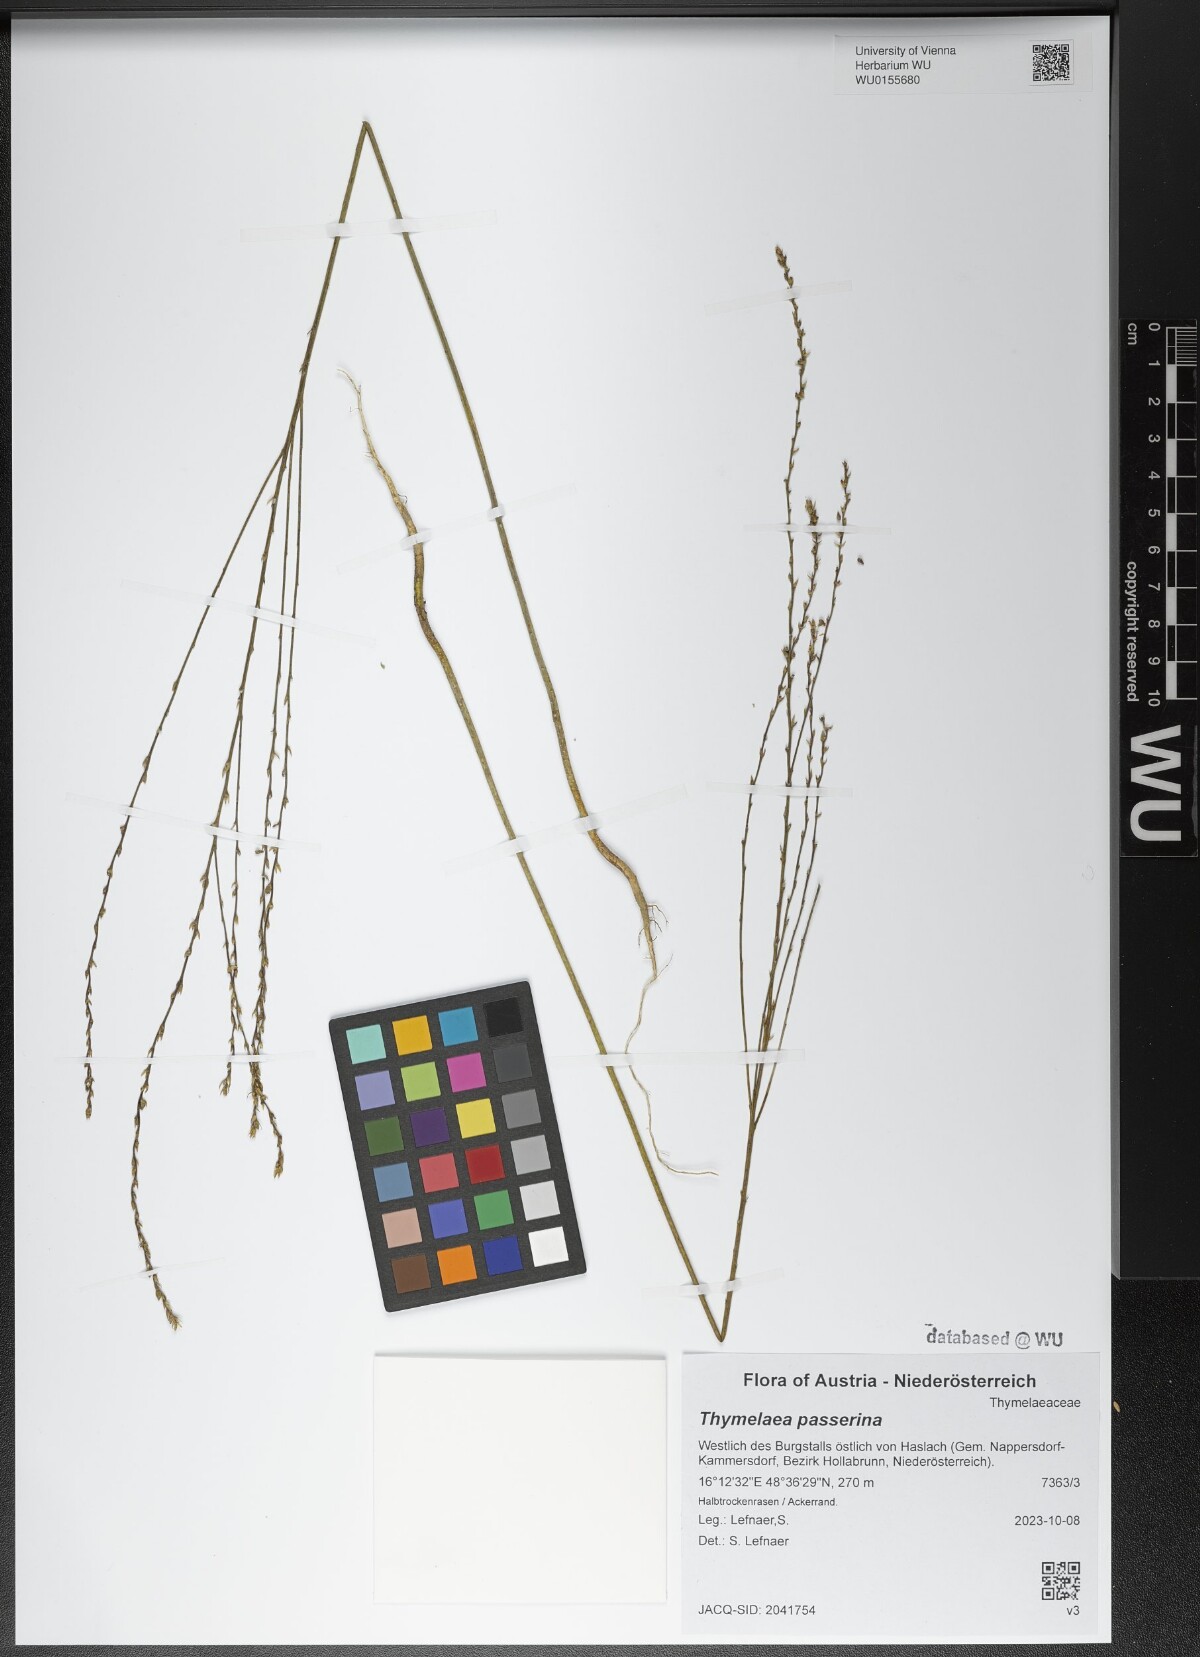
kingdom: Plantae
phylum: Tracheophyta
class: Magnoliopsida
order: Malvales
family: Thymelaeaceae
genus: Thymelaea
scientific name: Thymelaea passerina
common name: Annual thymelaea
